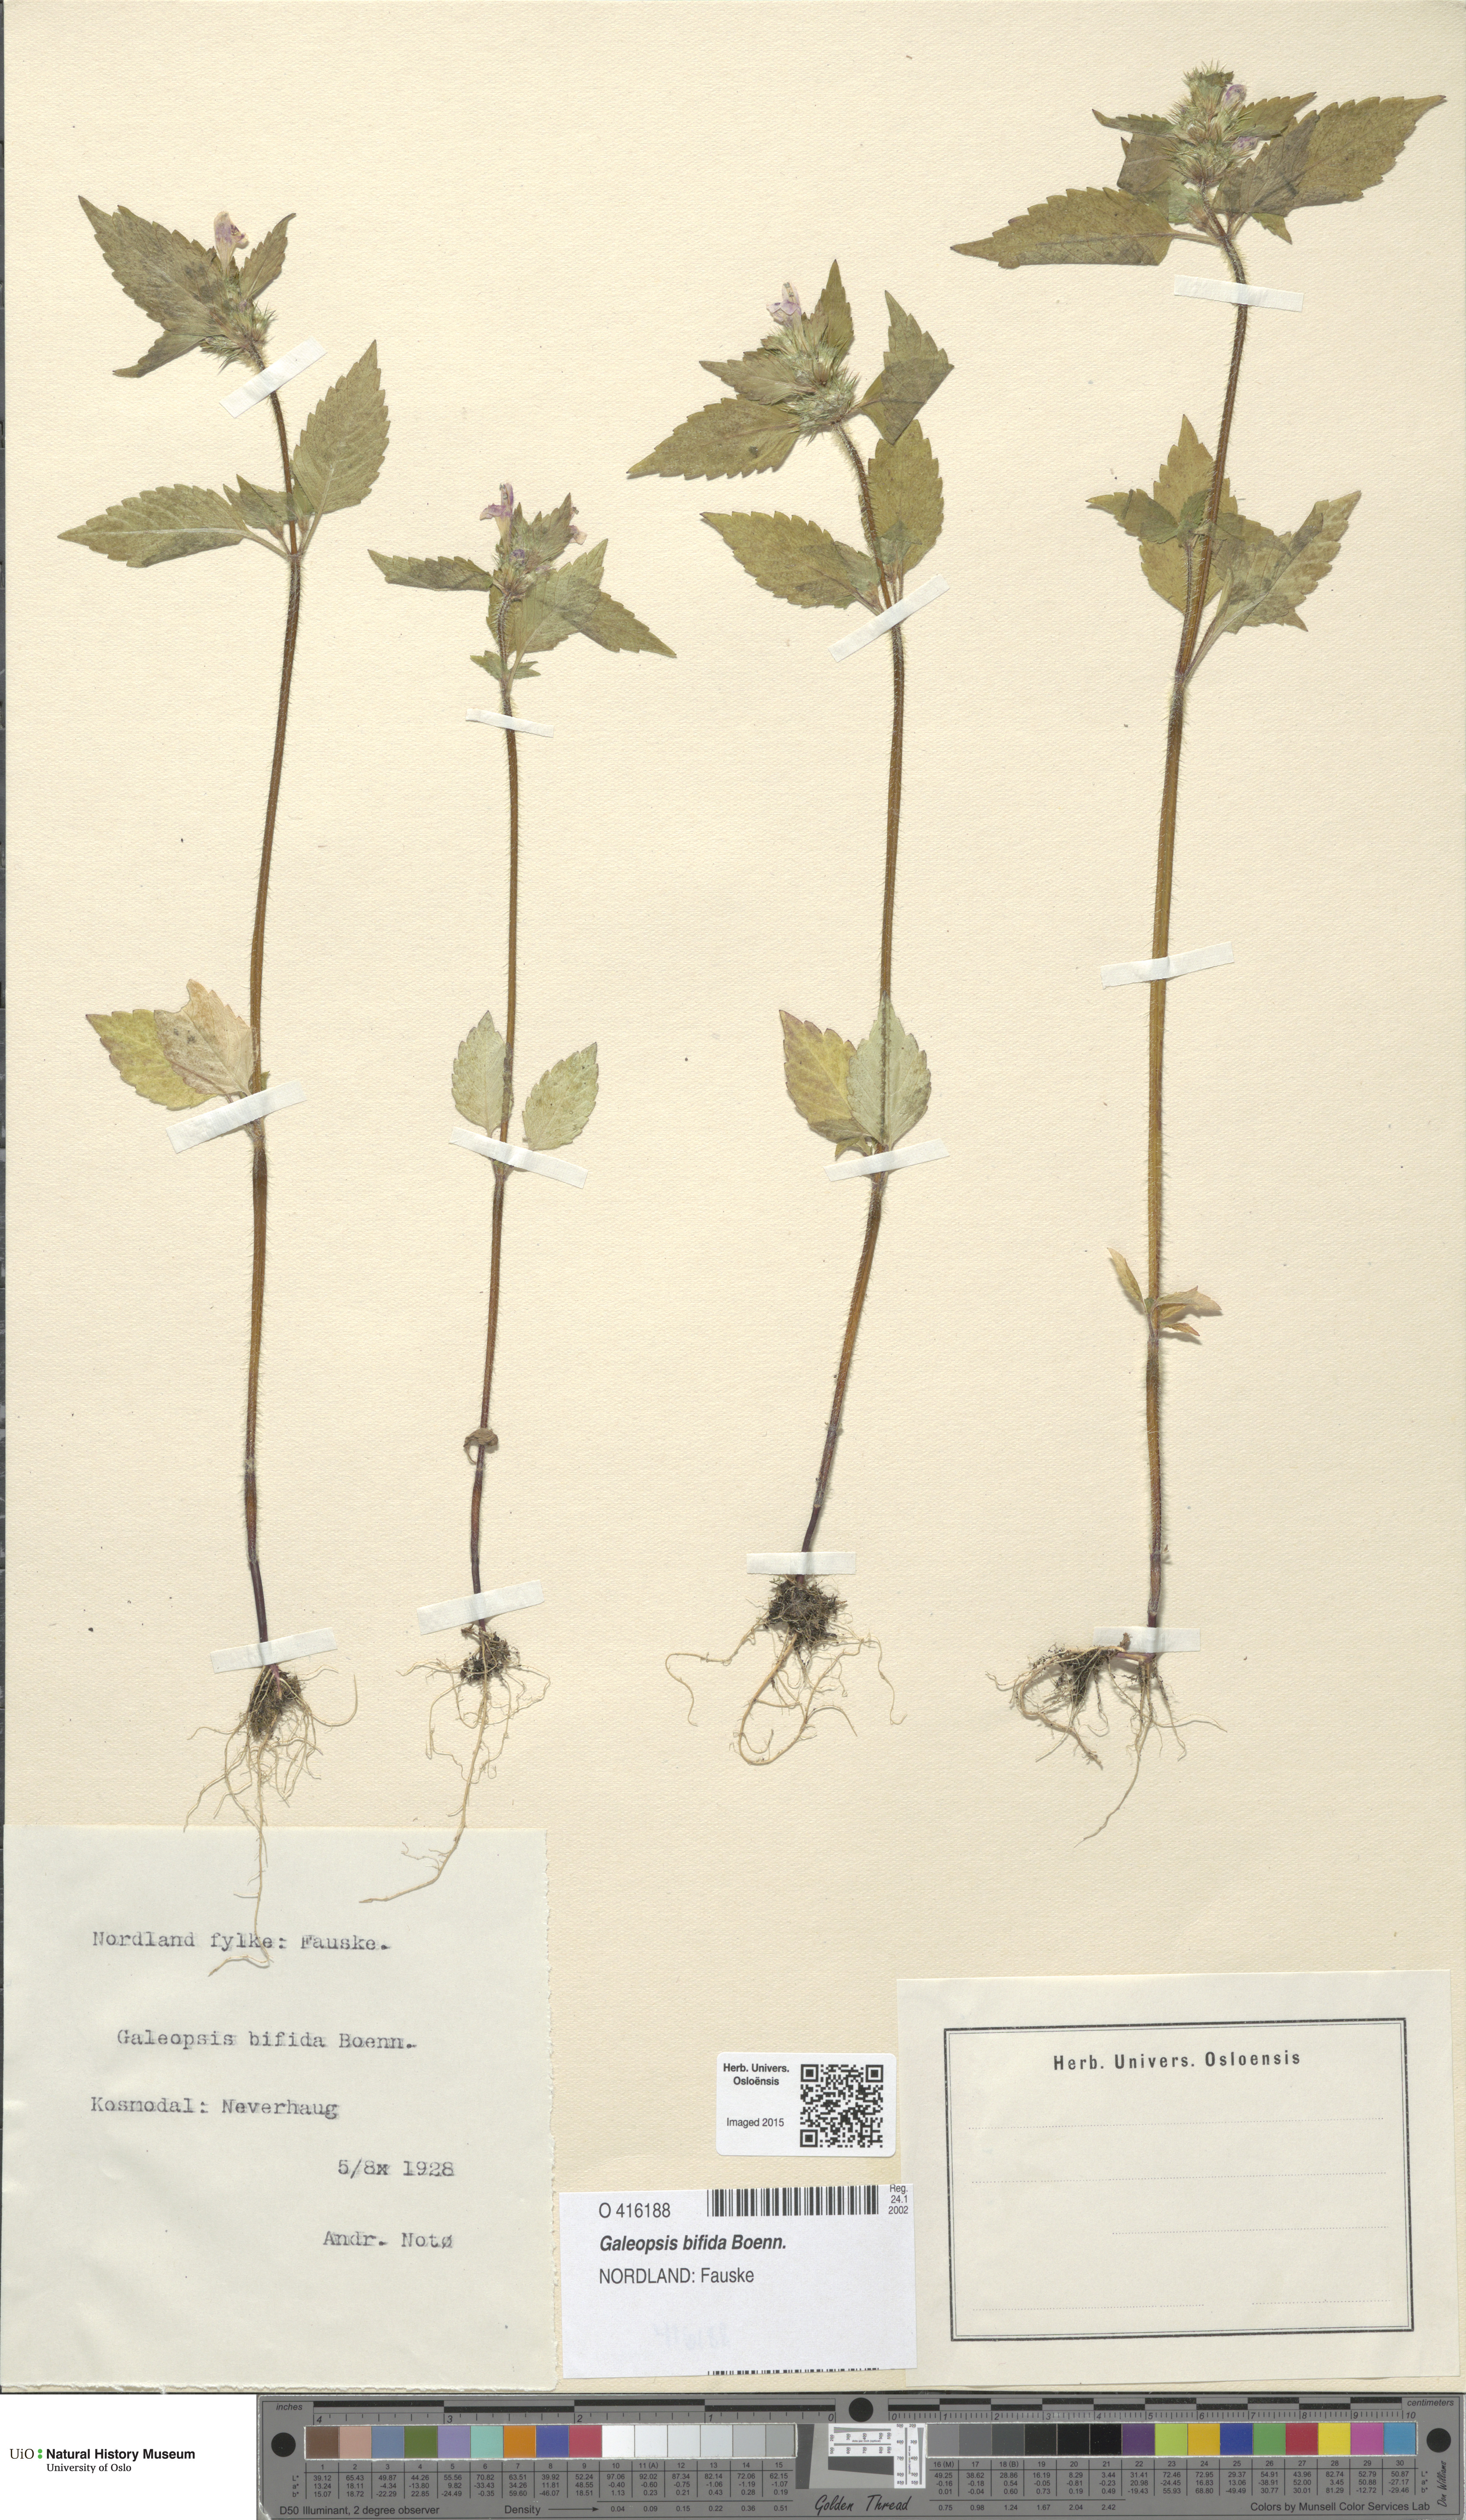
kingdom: Plantae
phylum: Tracheophyta
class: Magnoliopsida
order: Lamiales
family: Lamiaceae
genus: Galeopsis
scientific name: Galeopsis bifida
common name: Bifid hemp-nettle
